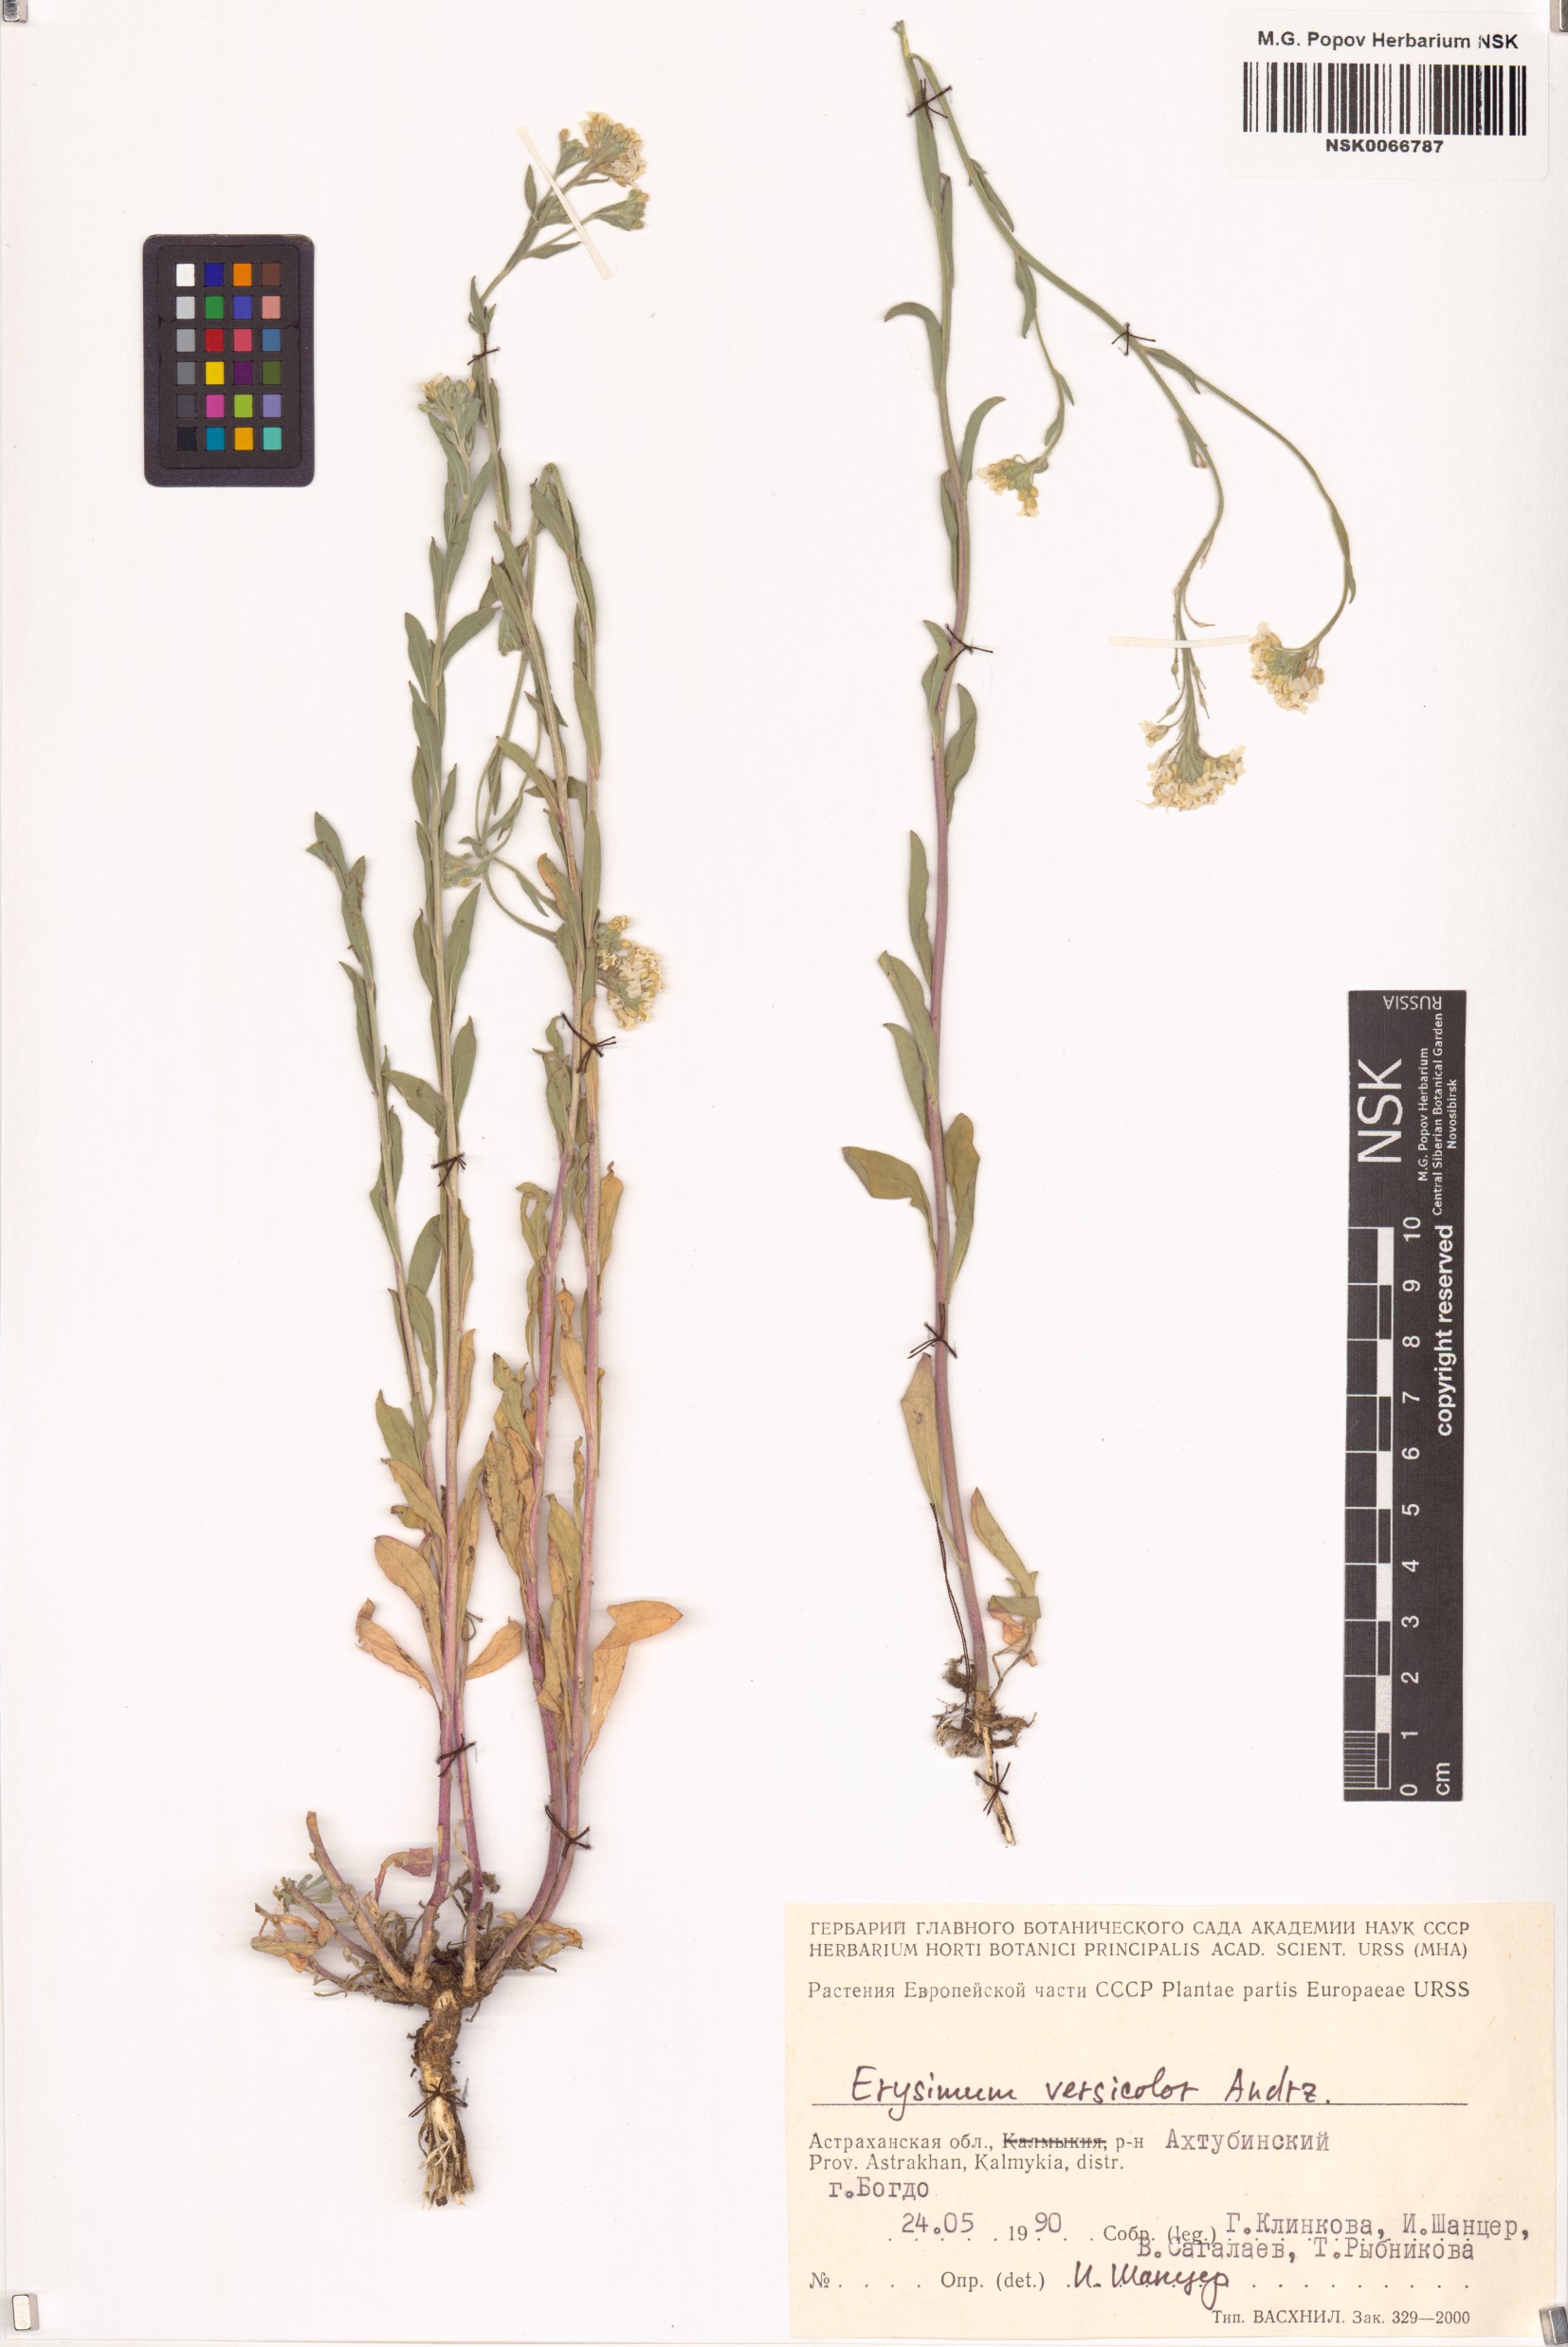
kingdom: Plantae
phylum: Tracheophyta
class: Magnoliopsida
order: Brassicales
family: Brassicaceae
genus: Erysimum
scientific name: Erysimum leucanthemum
